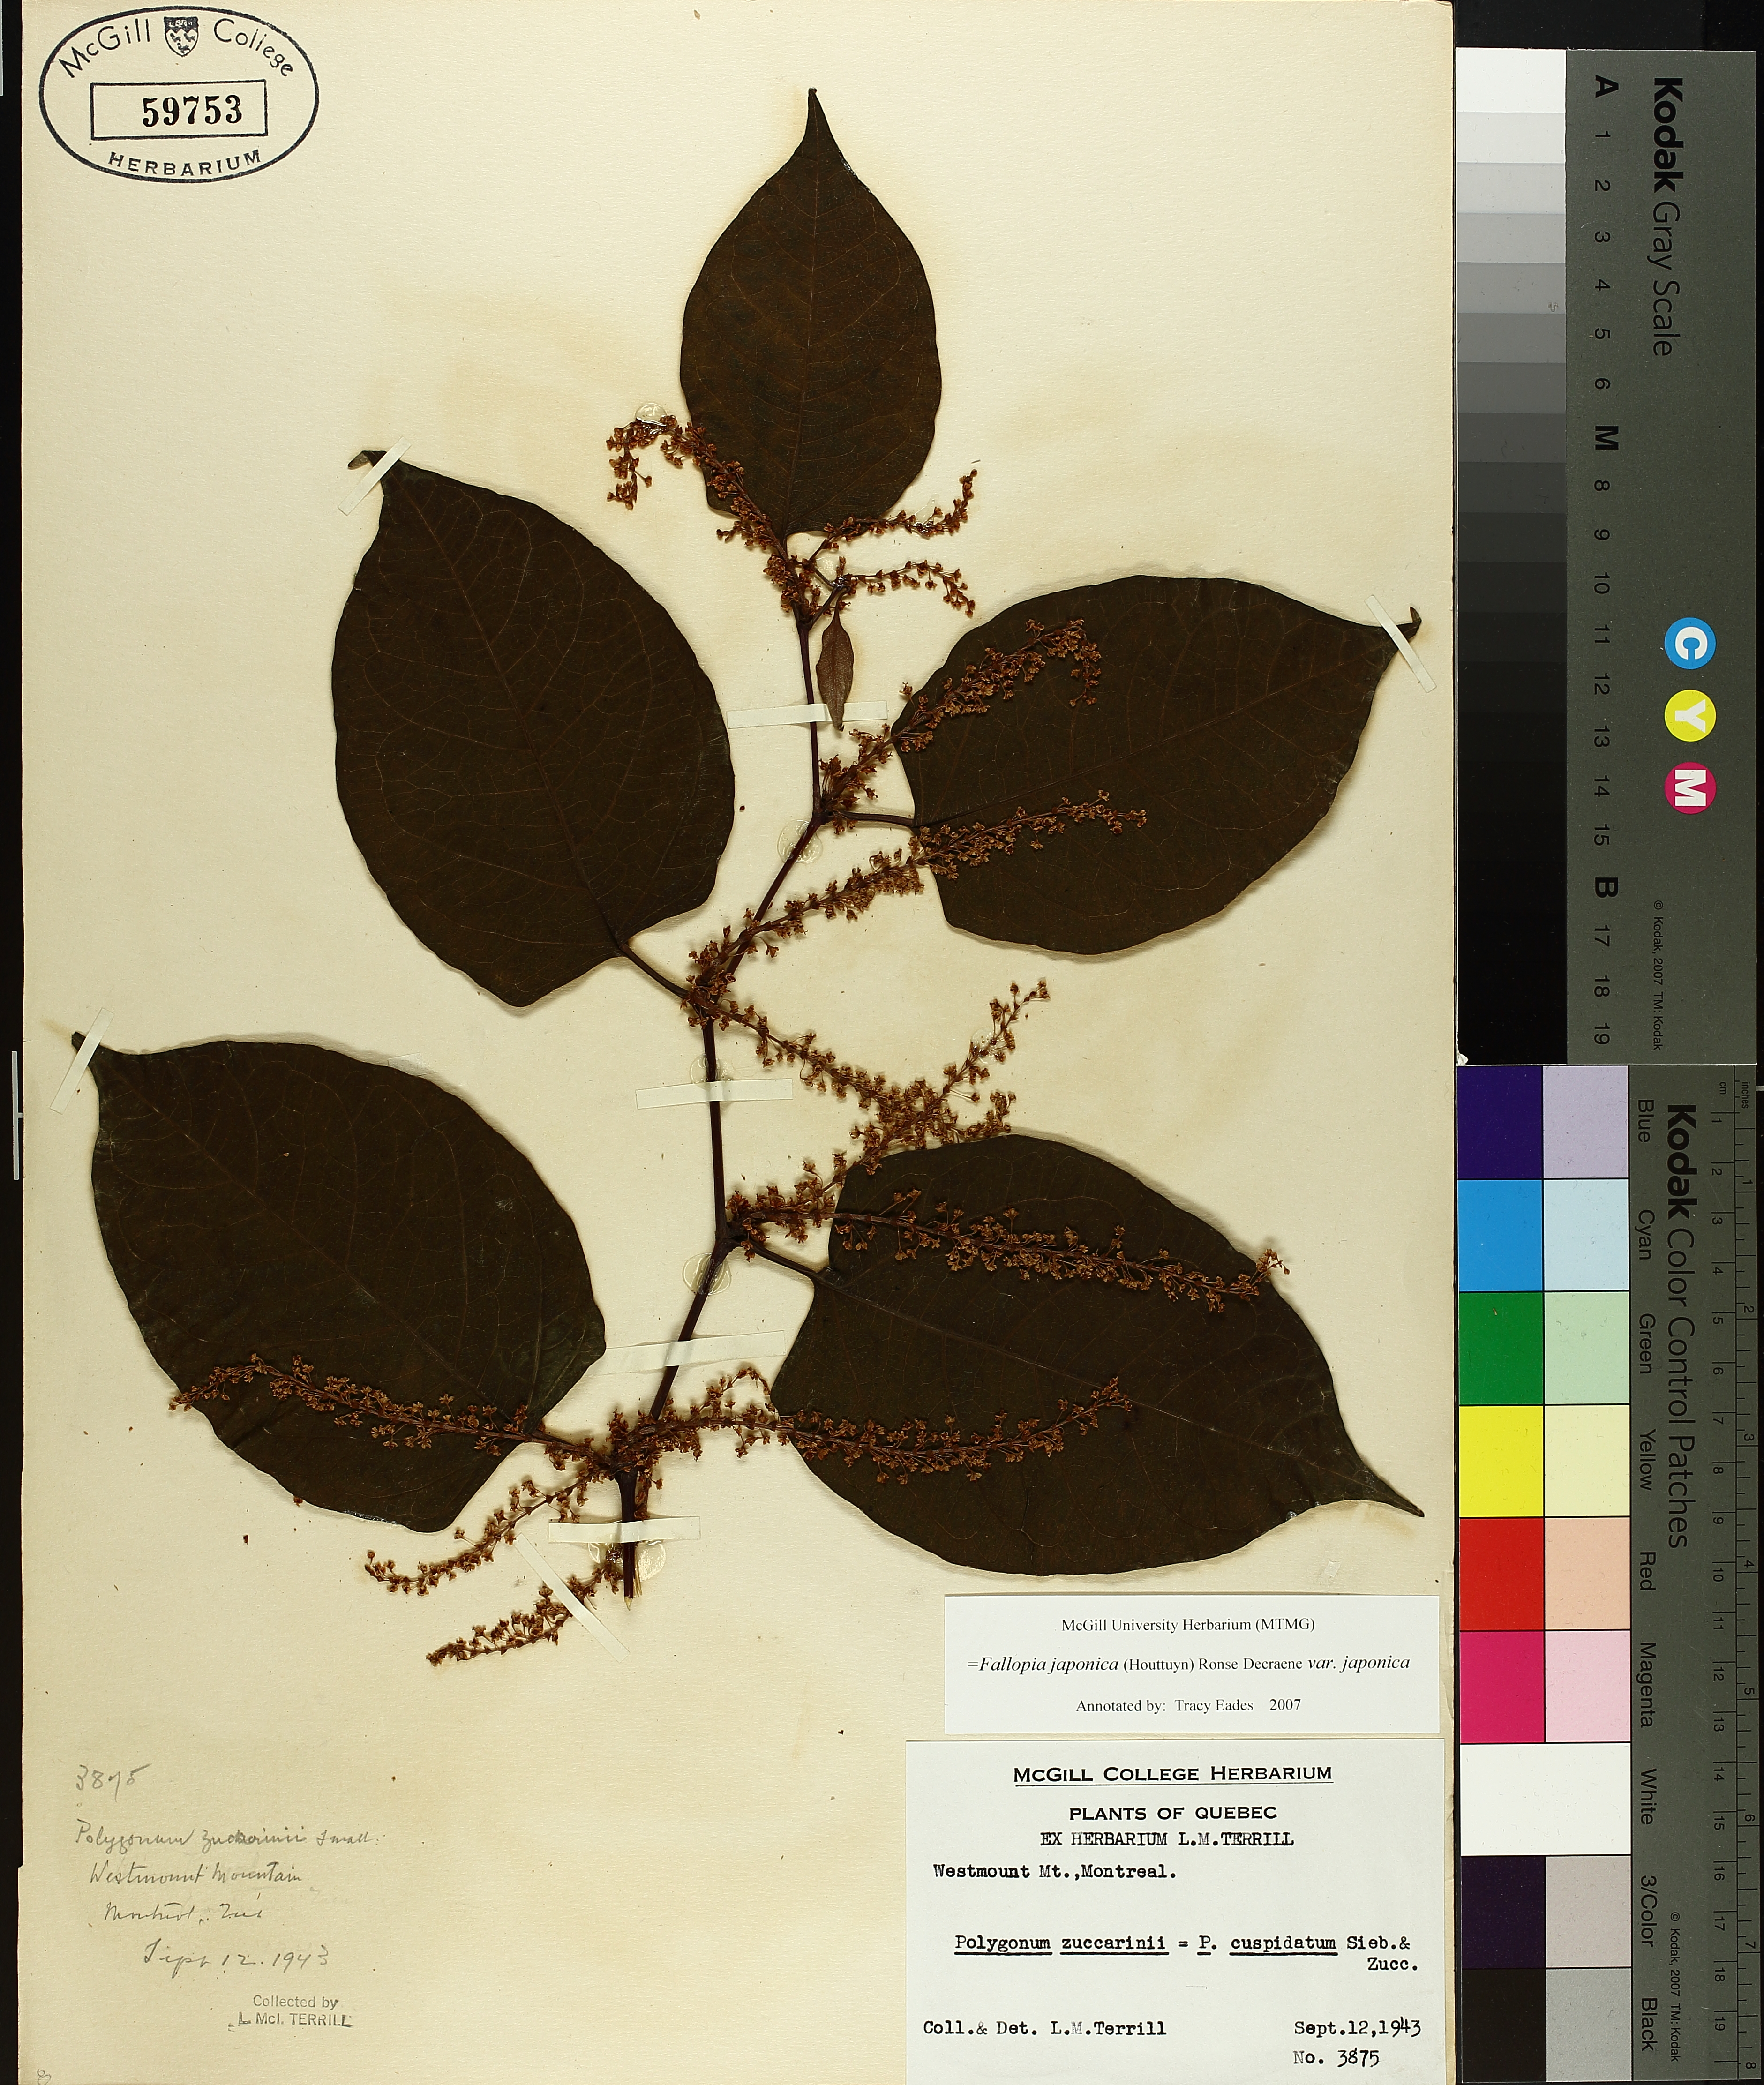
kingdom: Plantae
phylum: Tracheophyta
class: Magnoliopsida
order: Caryophyllales
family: Polygonaceae
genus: Reynoutria
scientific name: Reynoutria japonica
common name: Japanese knotweed
